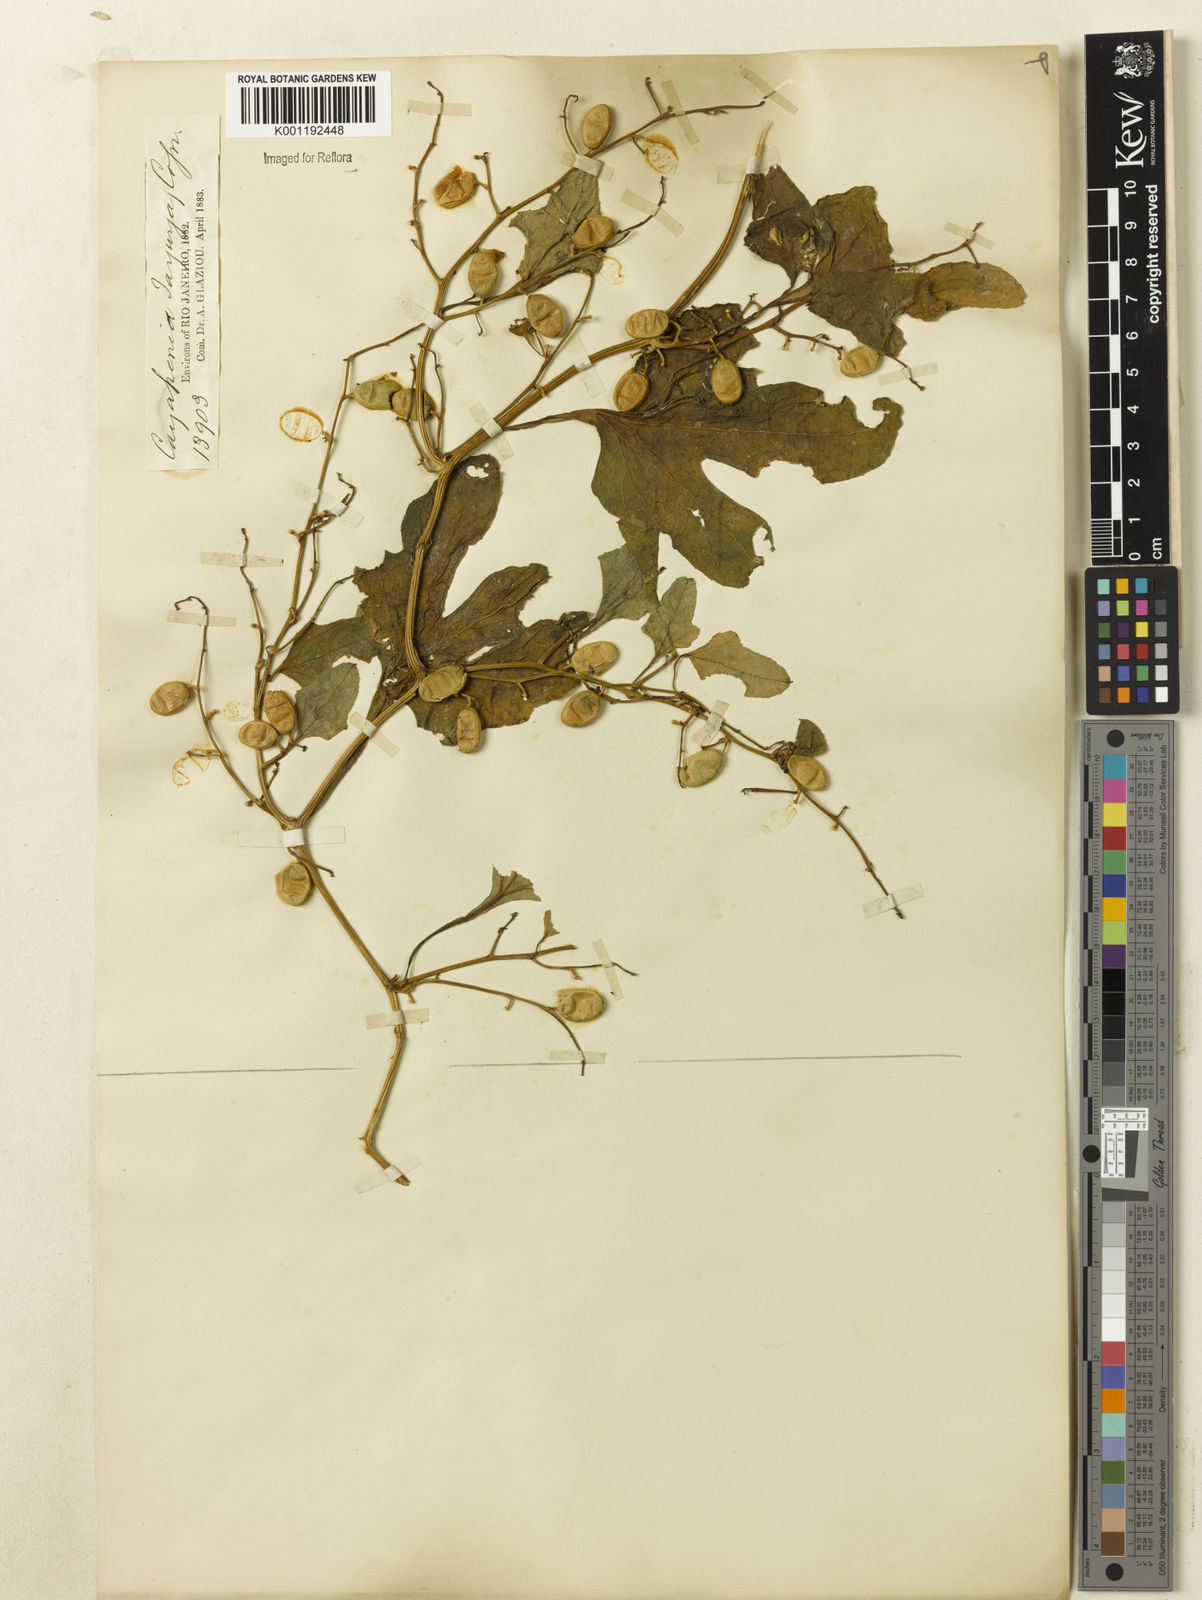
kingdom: Plantae
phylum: Tracheophyta
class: Magnoliopsida
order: Cucurbitales
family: Cucurbitaceae
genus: Cayaponia
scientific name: Cayaponia tayuya
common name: Tayuya
